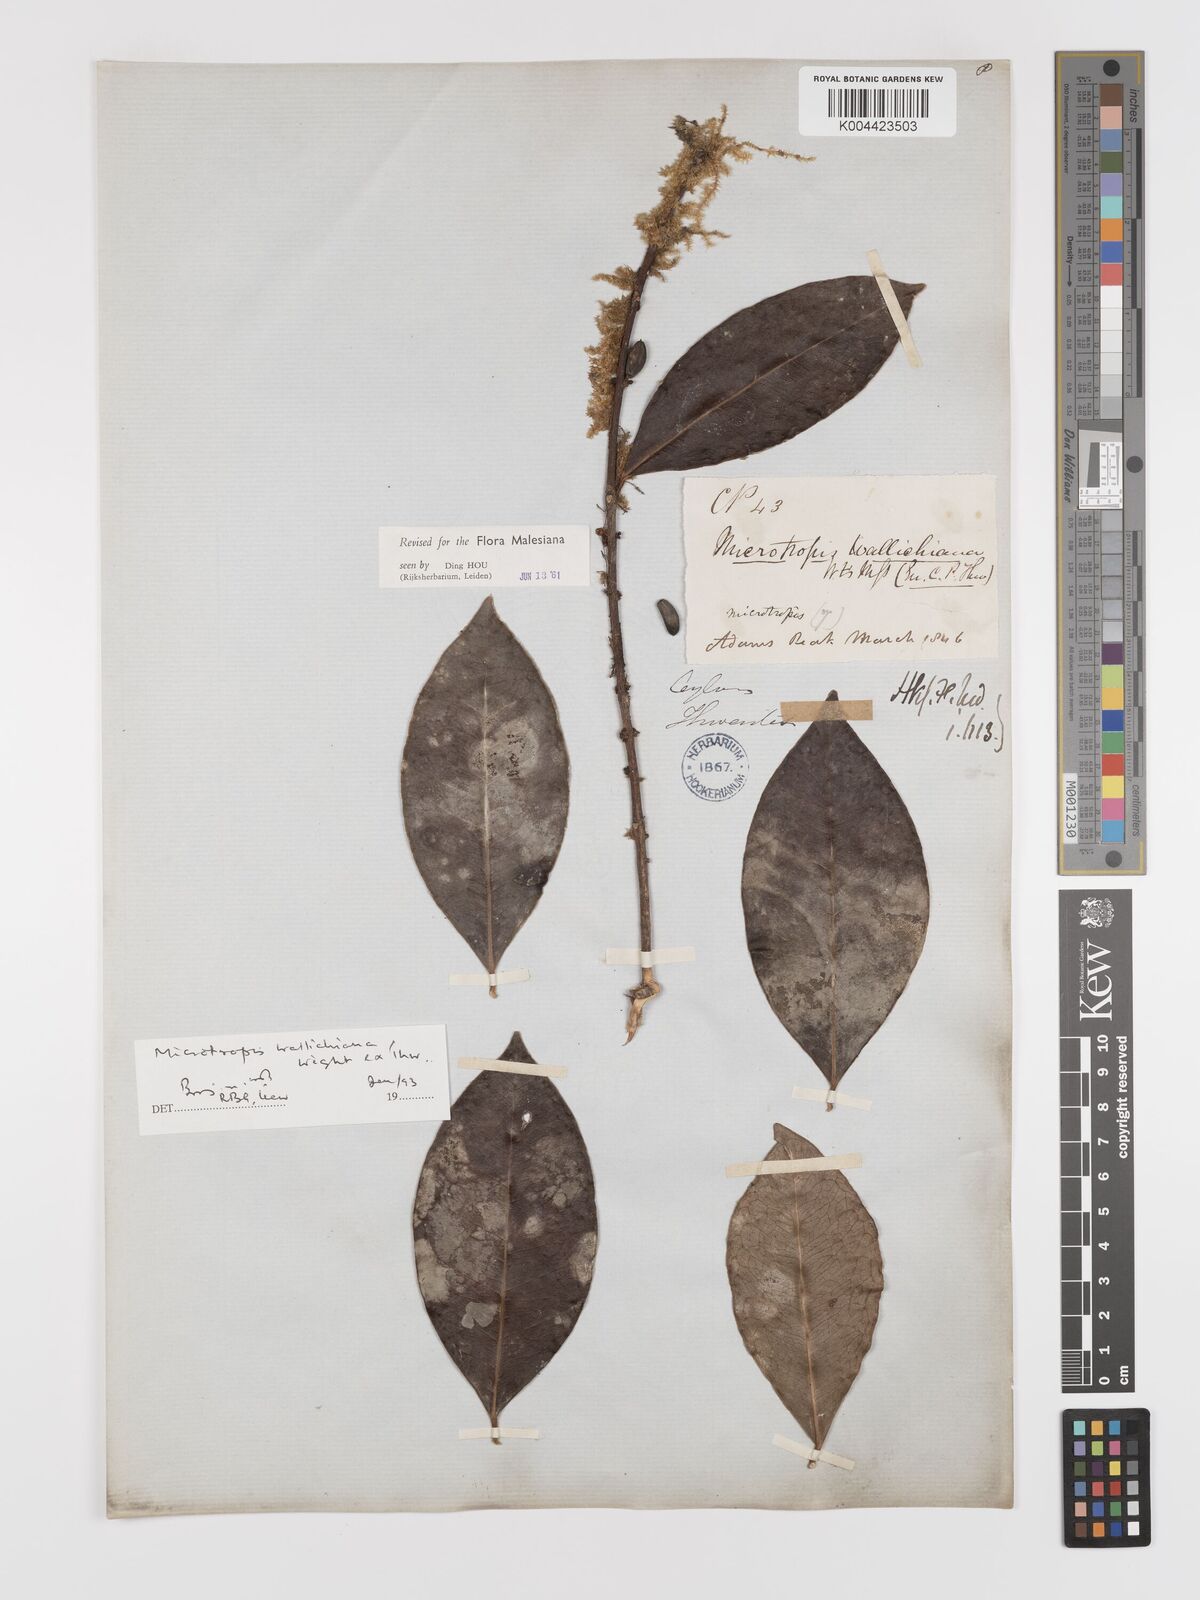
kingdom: Plantae
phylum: Tracheophyta
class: Magnoliopsida
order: Celastrales
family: Celastraceae
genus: Microtropis
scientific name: Microtropis wallichiana
